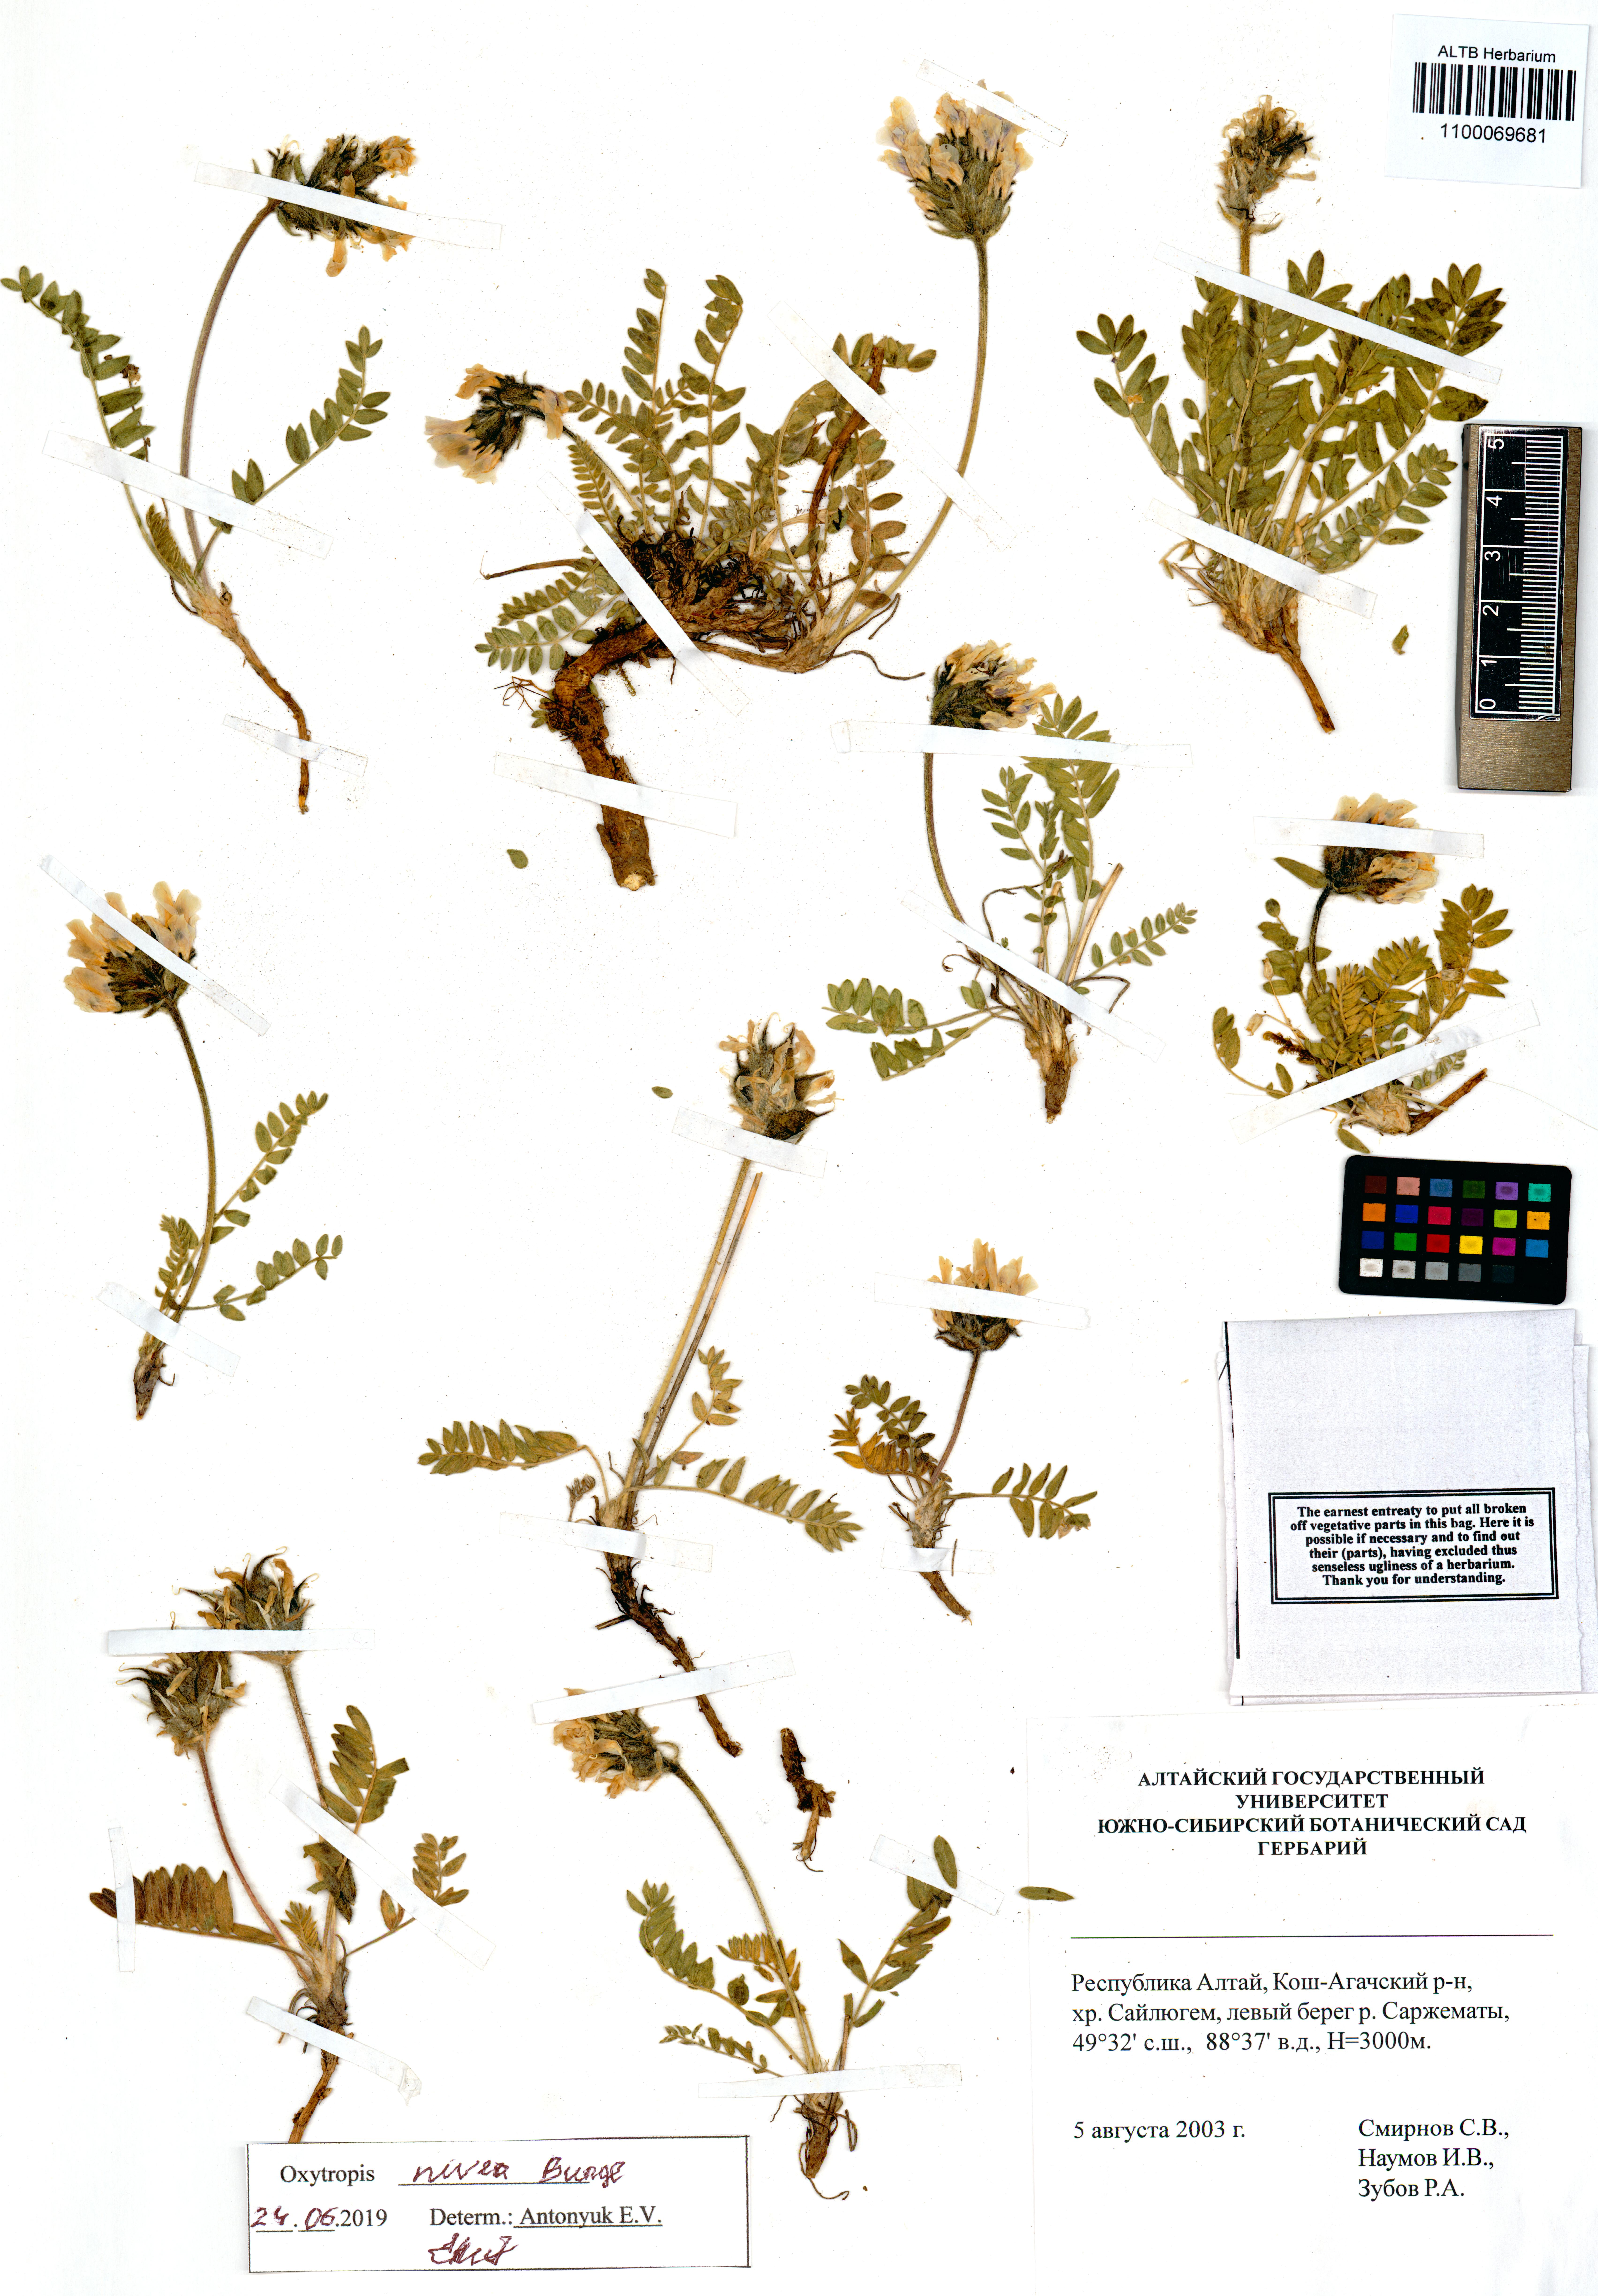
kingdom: Plantae
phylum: Tracheophyta
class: Magnoliopsida
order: Fabales
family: Fabaceae
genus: Oxytropis
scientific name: Oxytropis nivea
